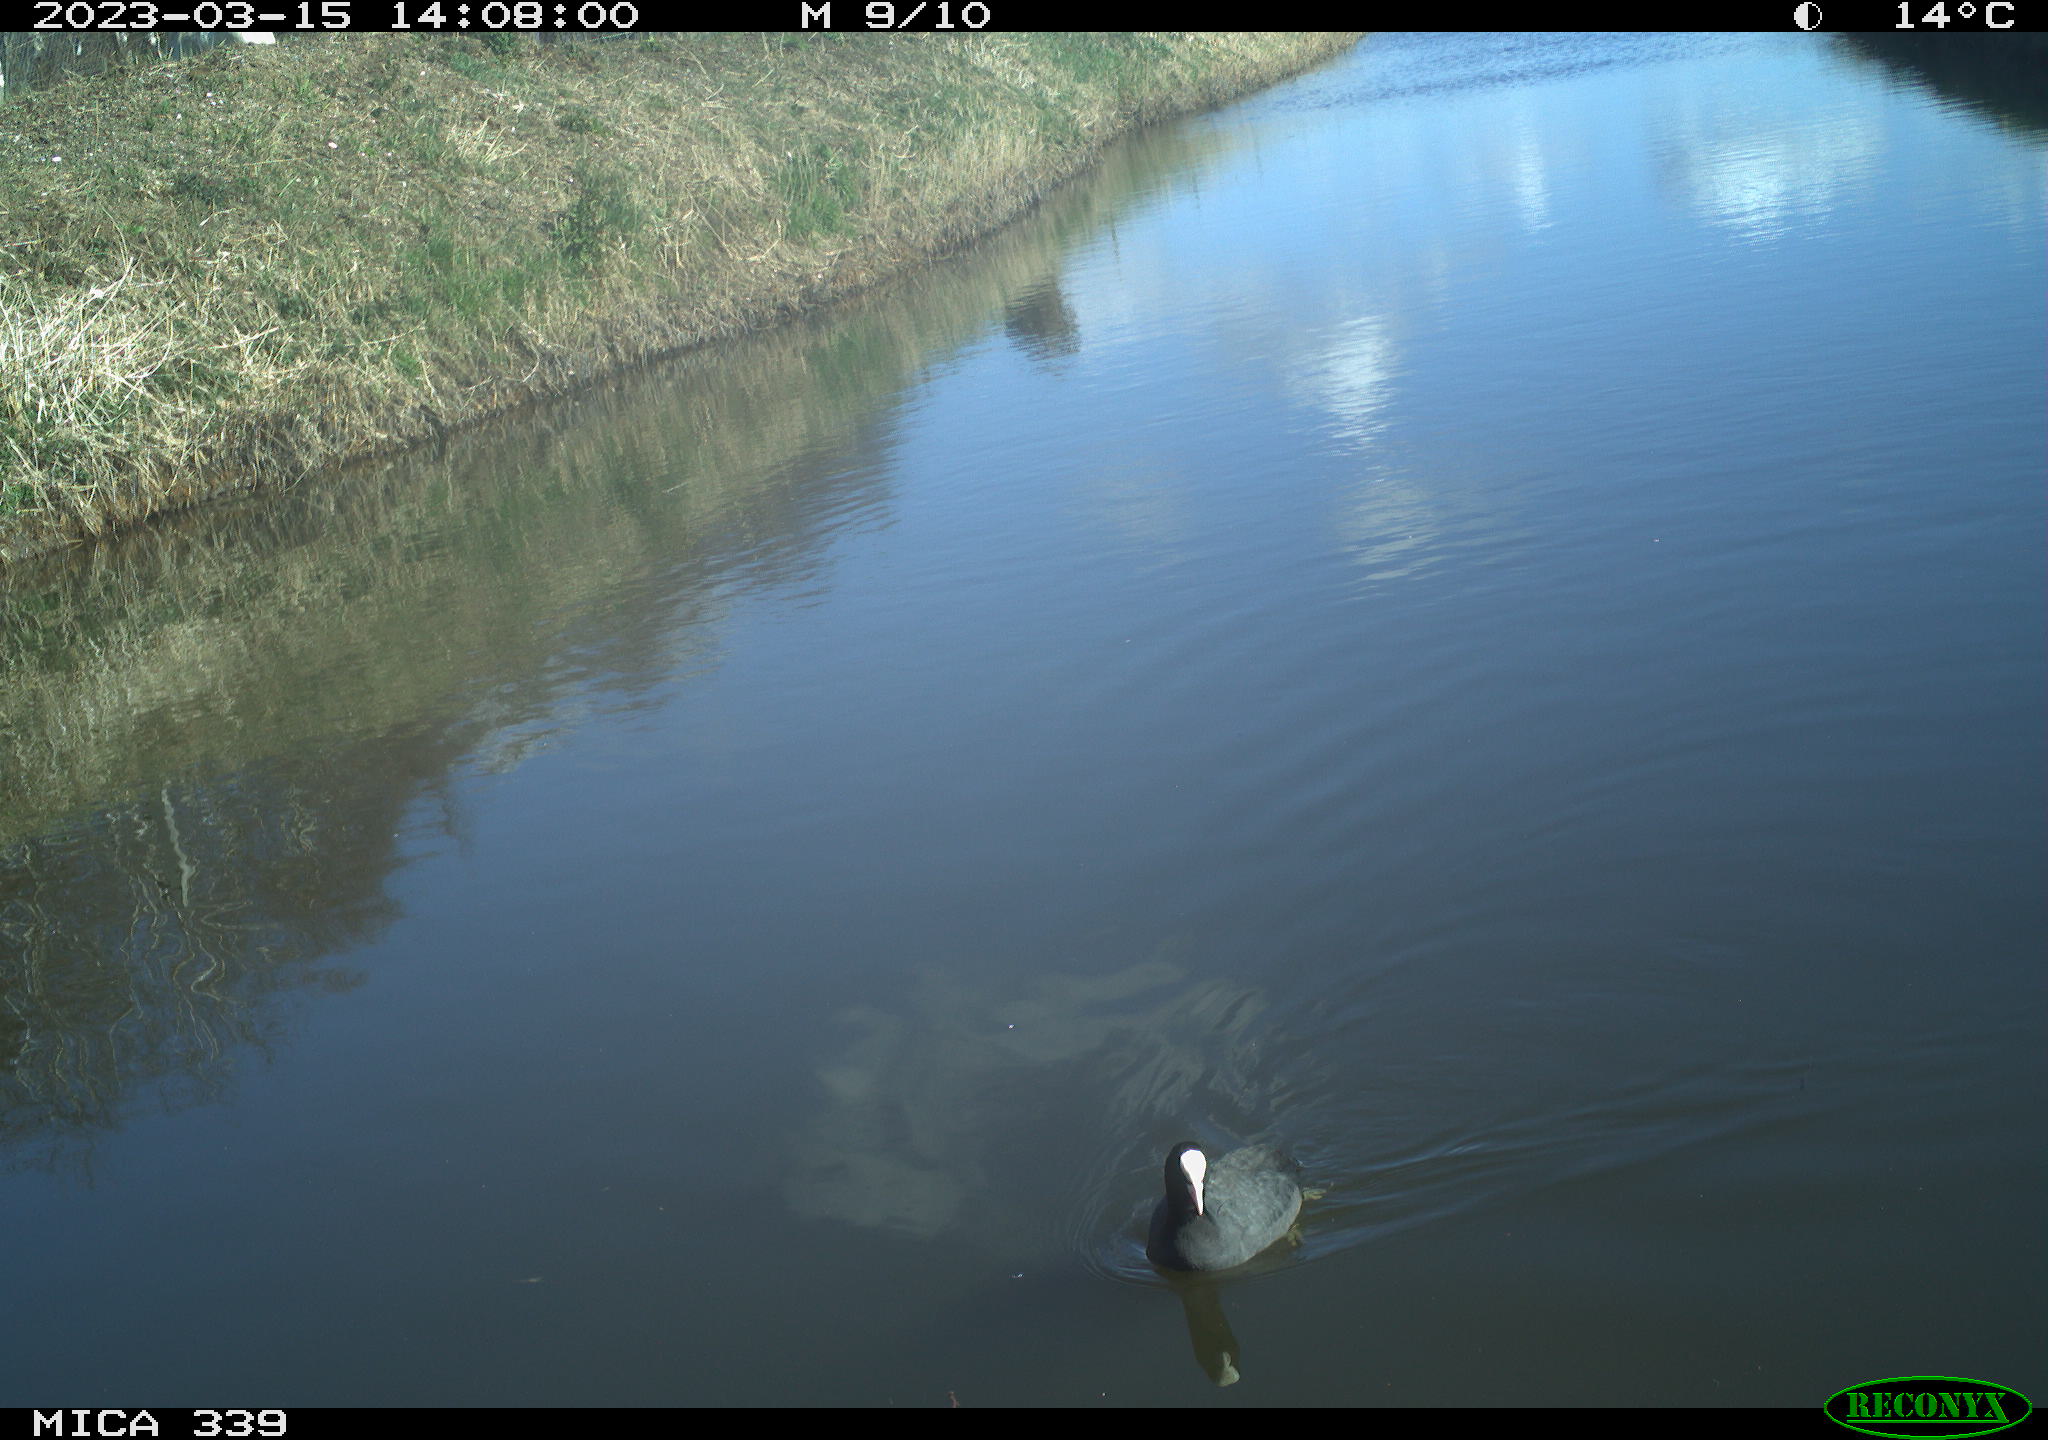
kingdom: Animalia
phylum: Chordata
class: Aves
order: Gruiformes
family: Rallidae
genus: Fulica
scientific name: Fulica atra
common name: Eurasian coot
